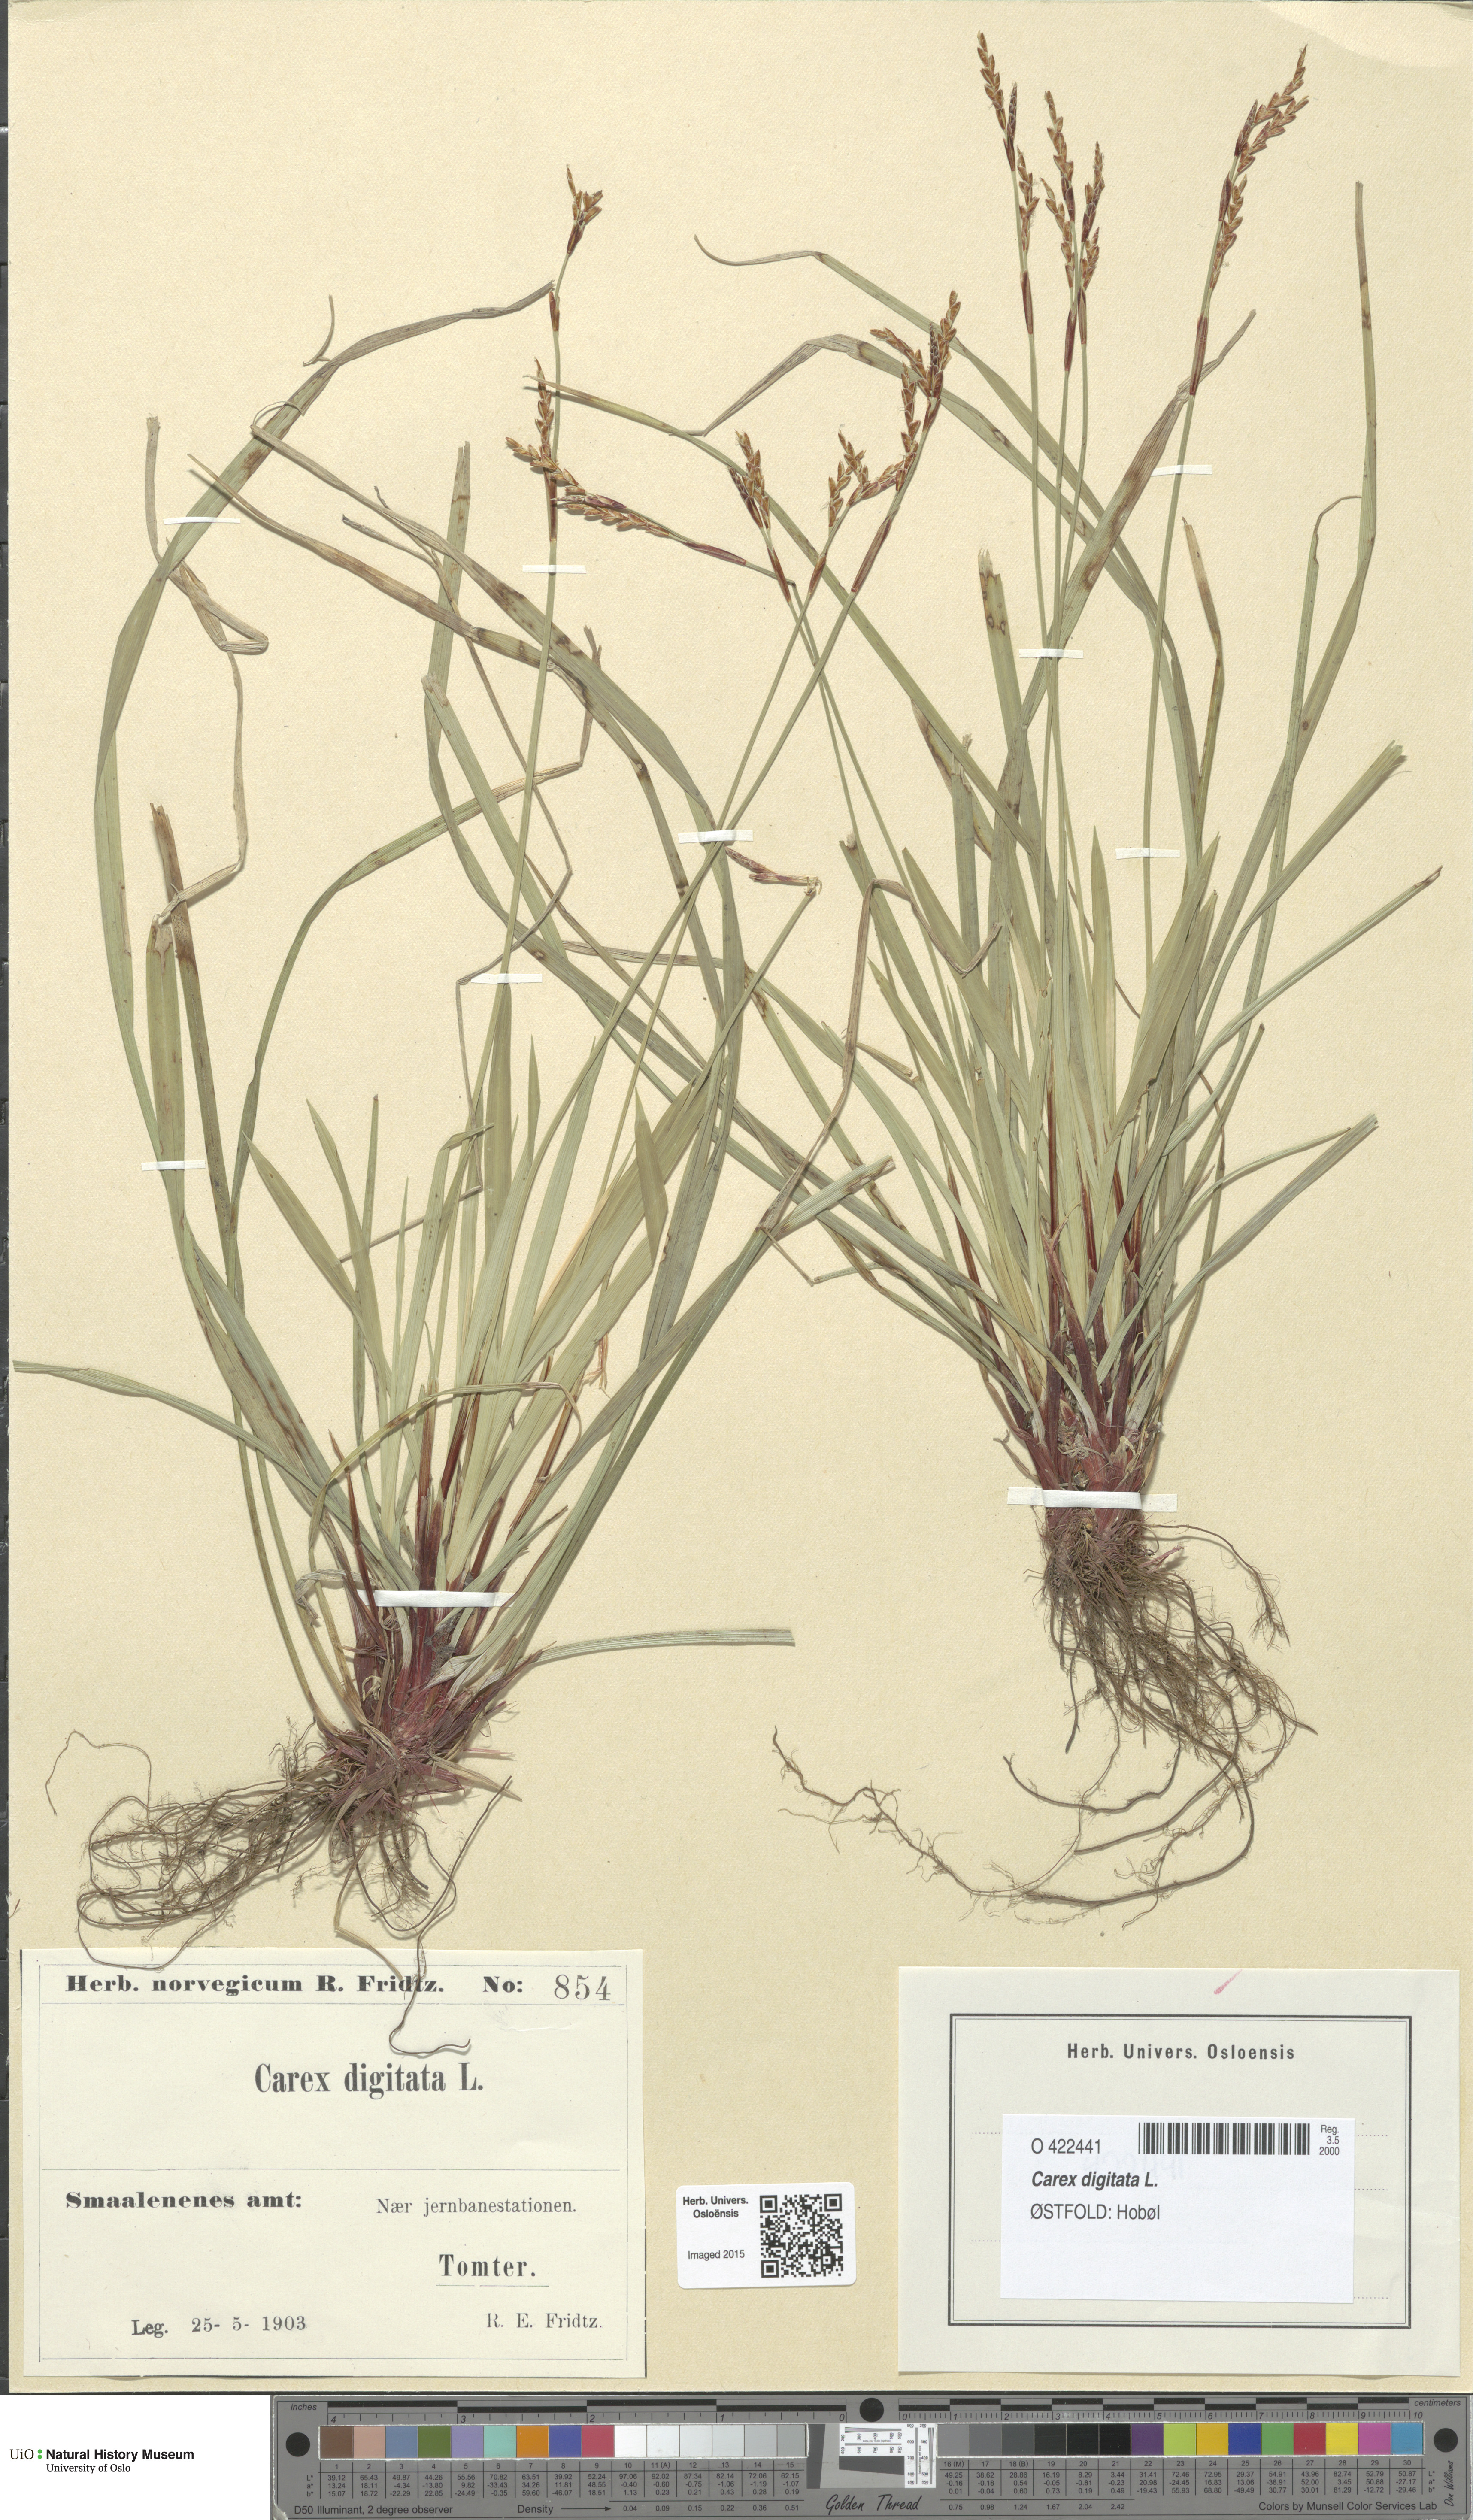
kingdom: Plantae
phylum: Tracheophyta
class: Liliopsida
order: Poales
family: Cyperaceae
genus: Carex
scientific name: Carex digitata
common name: Fingered sedge
